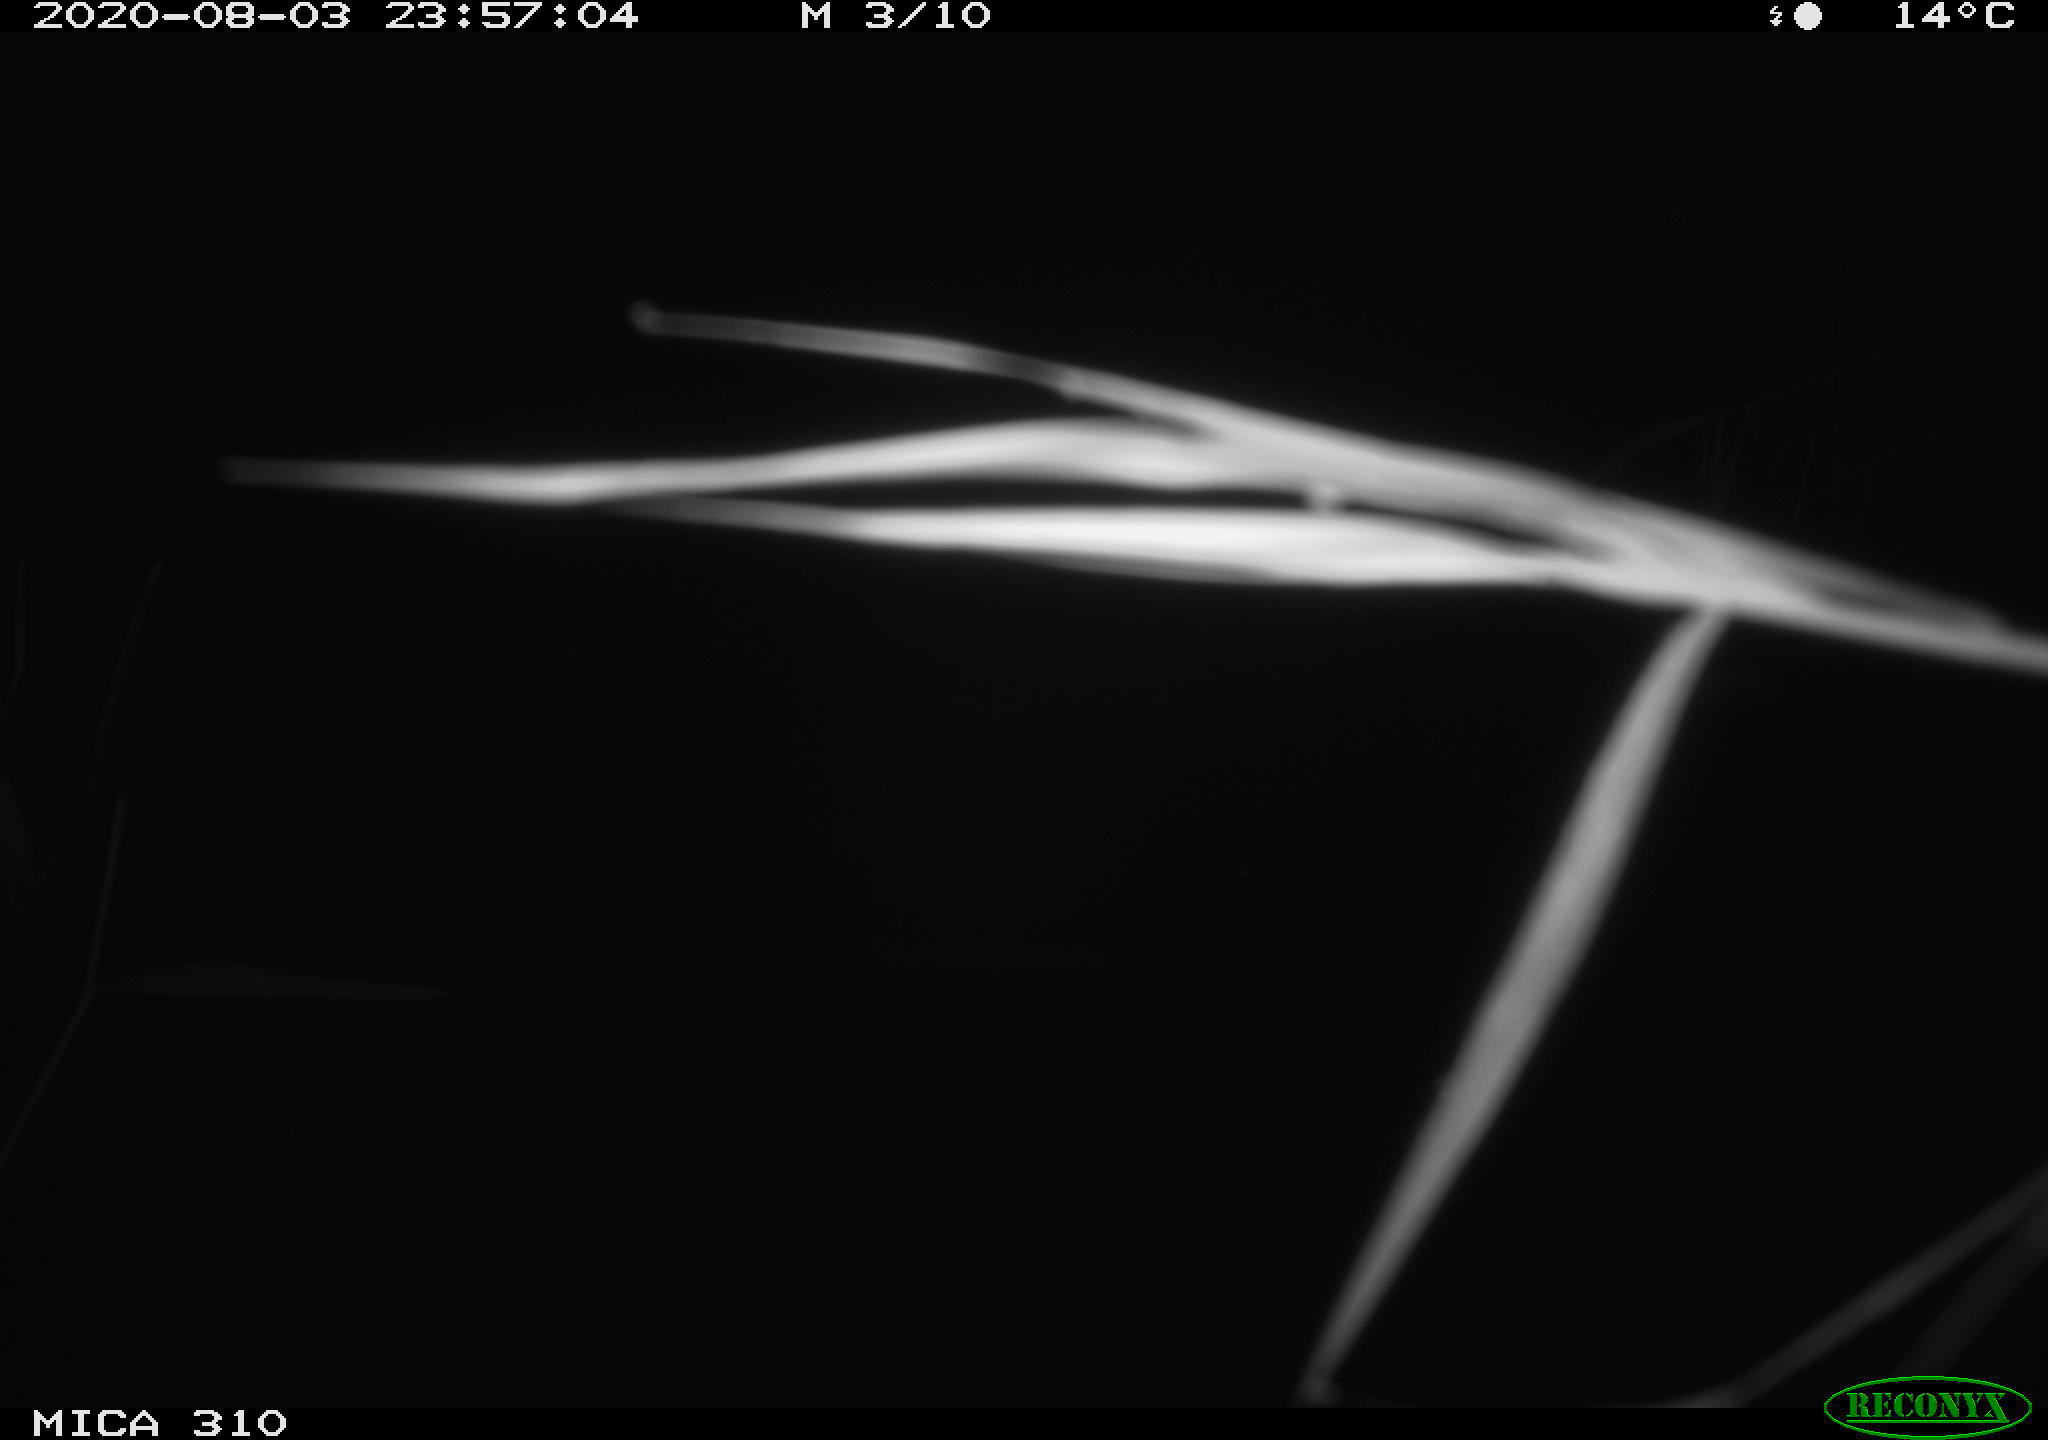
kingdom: Animalia
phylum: Chordata
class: Mammalia
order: Rodentia
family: Cricetidae
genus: Ondatra
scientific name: Ondatra zibethicus
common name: Muskrat
